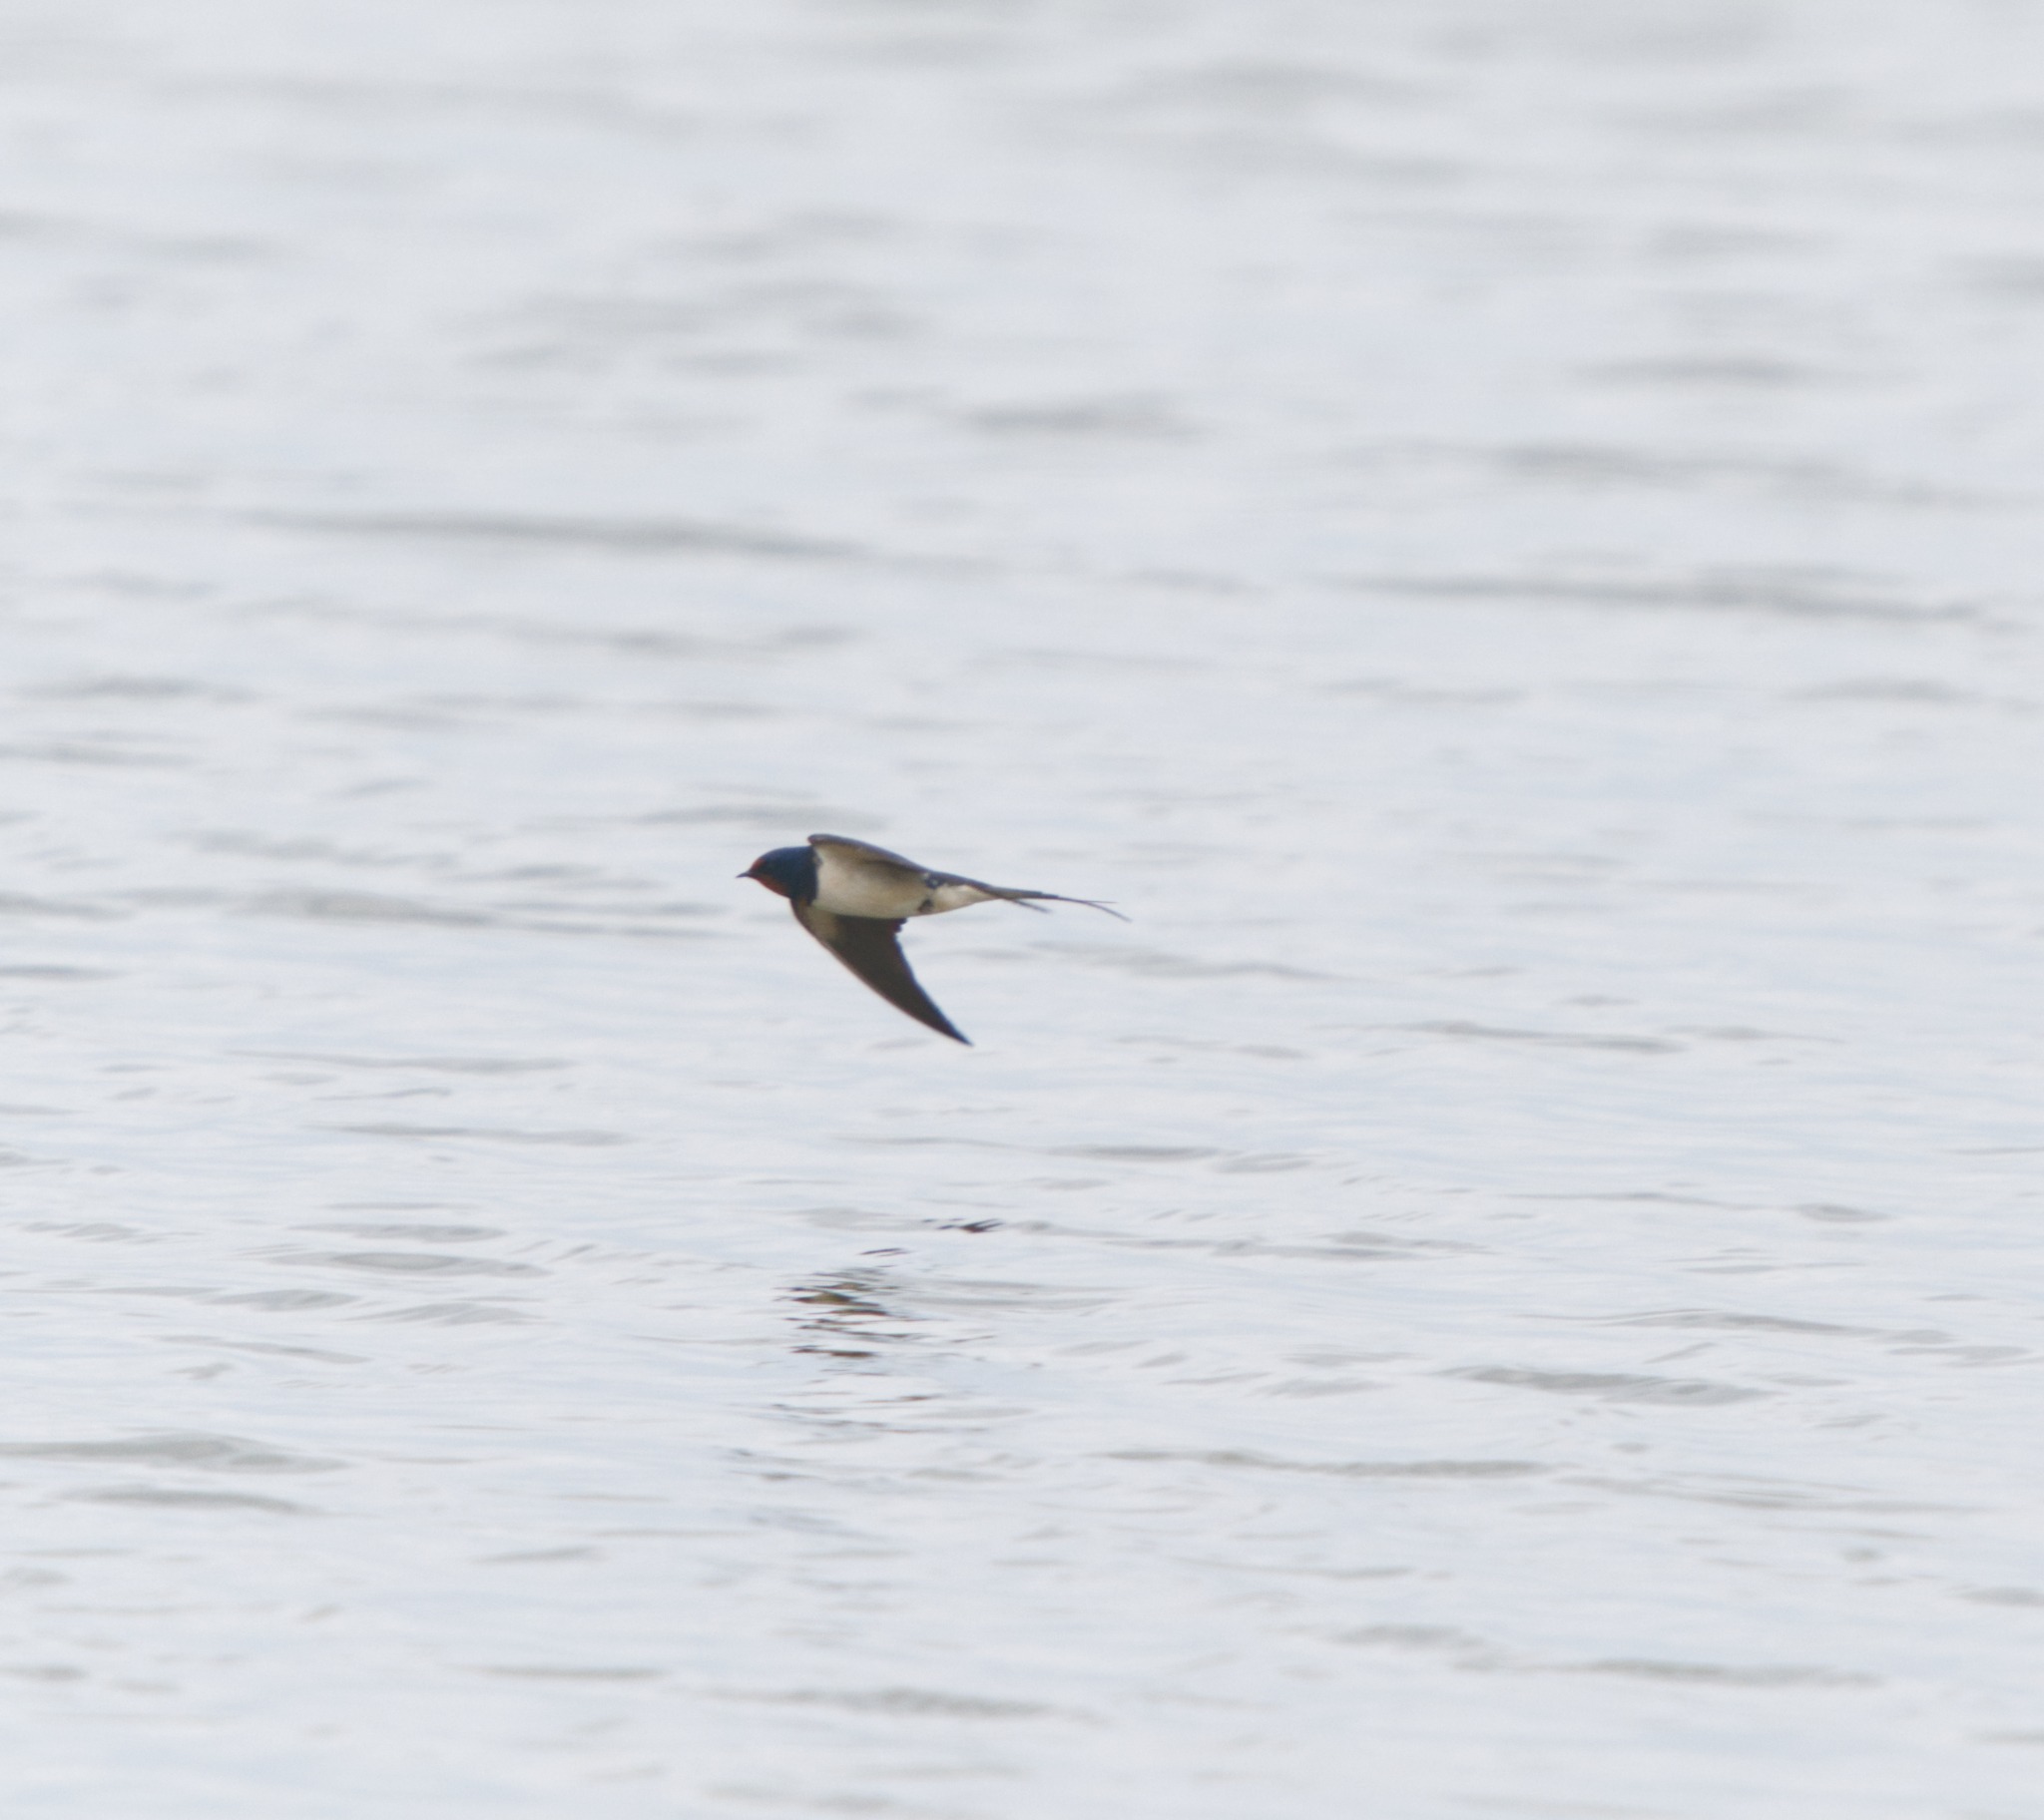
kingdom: Animalia
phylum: Chordata
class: Aves
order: Passeriformes
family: Hirundinidae
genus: Hirundo
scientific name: Hirundo rustica
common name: Landsvale
